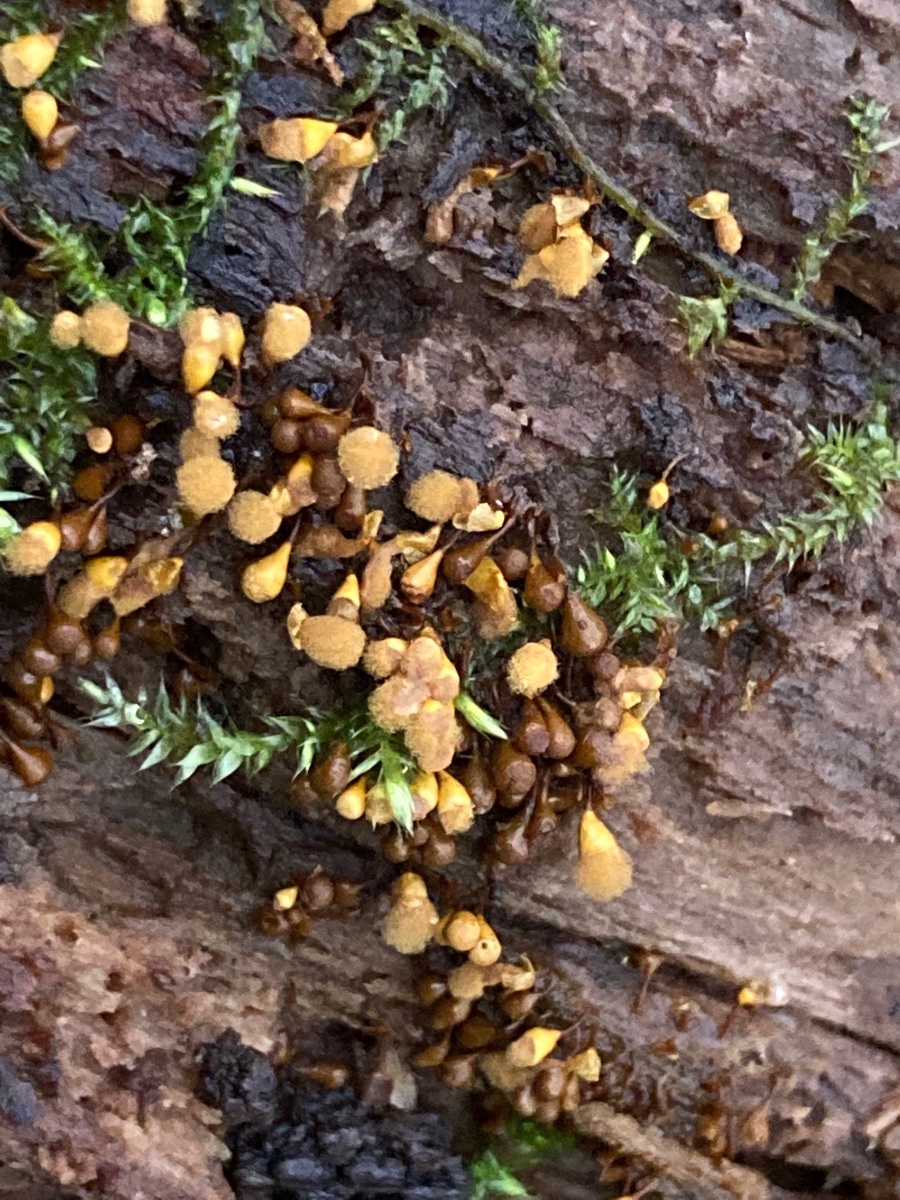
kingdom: Protozoa
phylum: Mycetozoa
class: Myxomycetes
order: Trichiales
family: Arcyriaceae
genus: Hemitrichia
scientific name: Hemitrichia clavata
